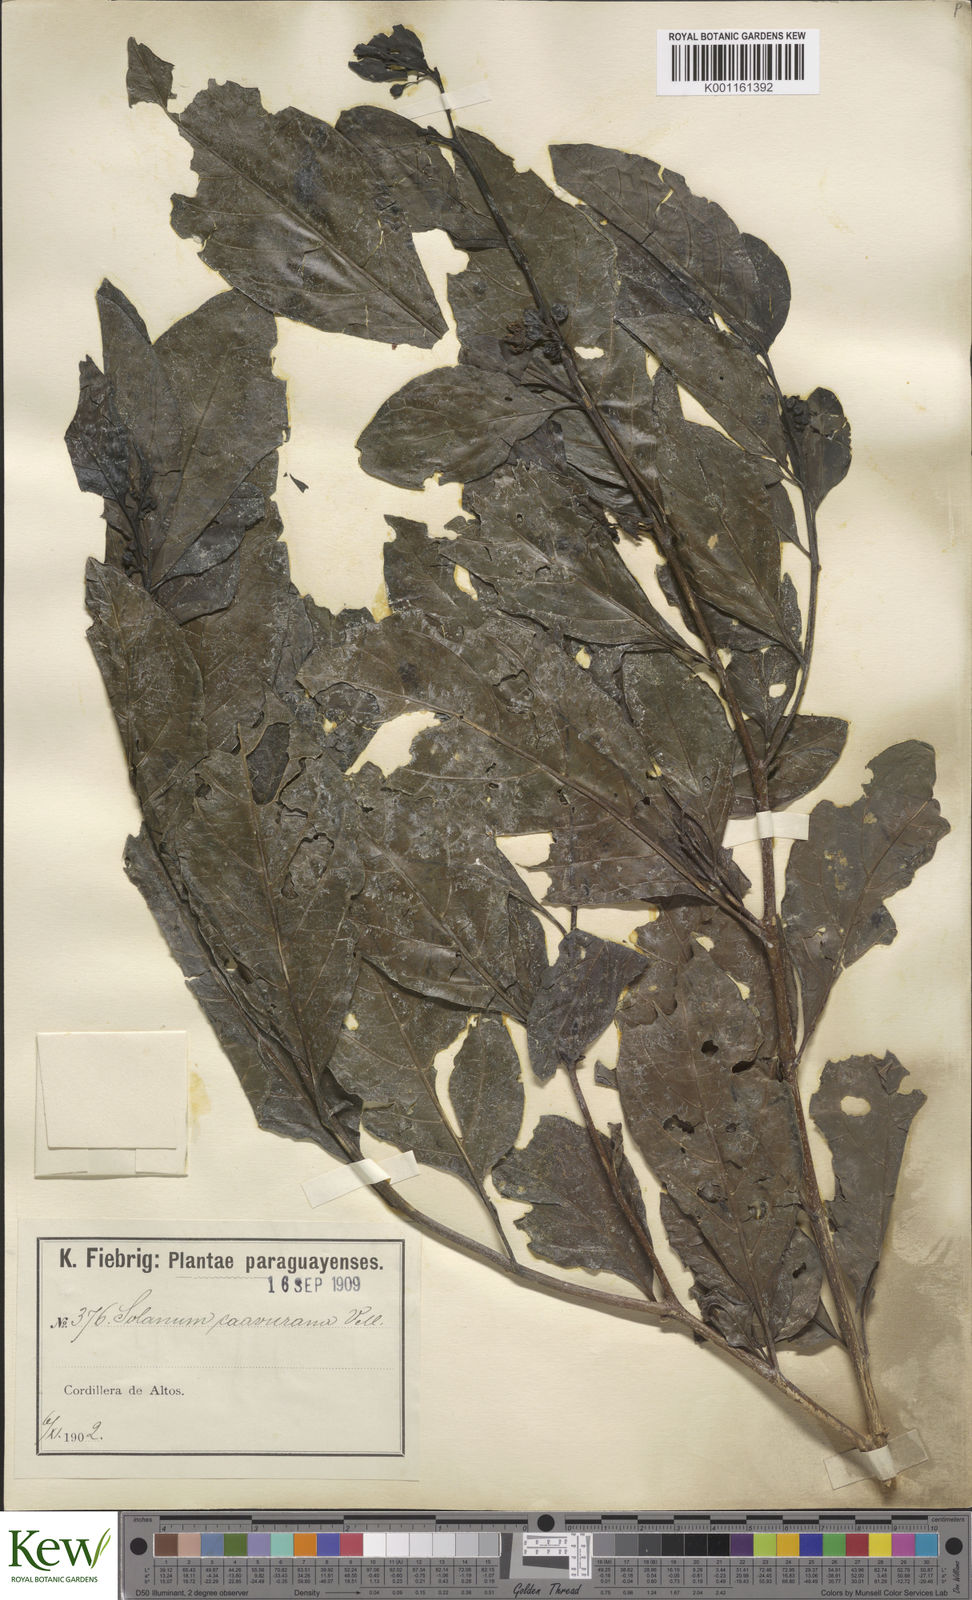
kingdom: Plantae
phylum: Tracheophyta
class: Magnoliopsida
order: Solanales
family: Solanaceae
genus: Solanum
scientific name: Solanum caavurana
